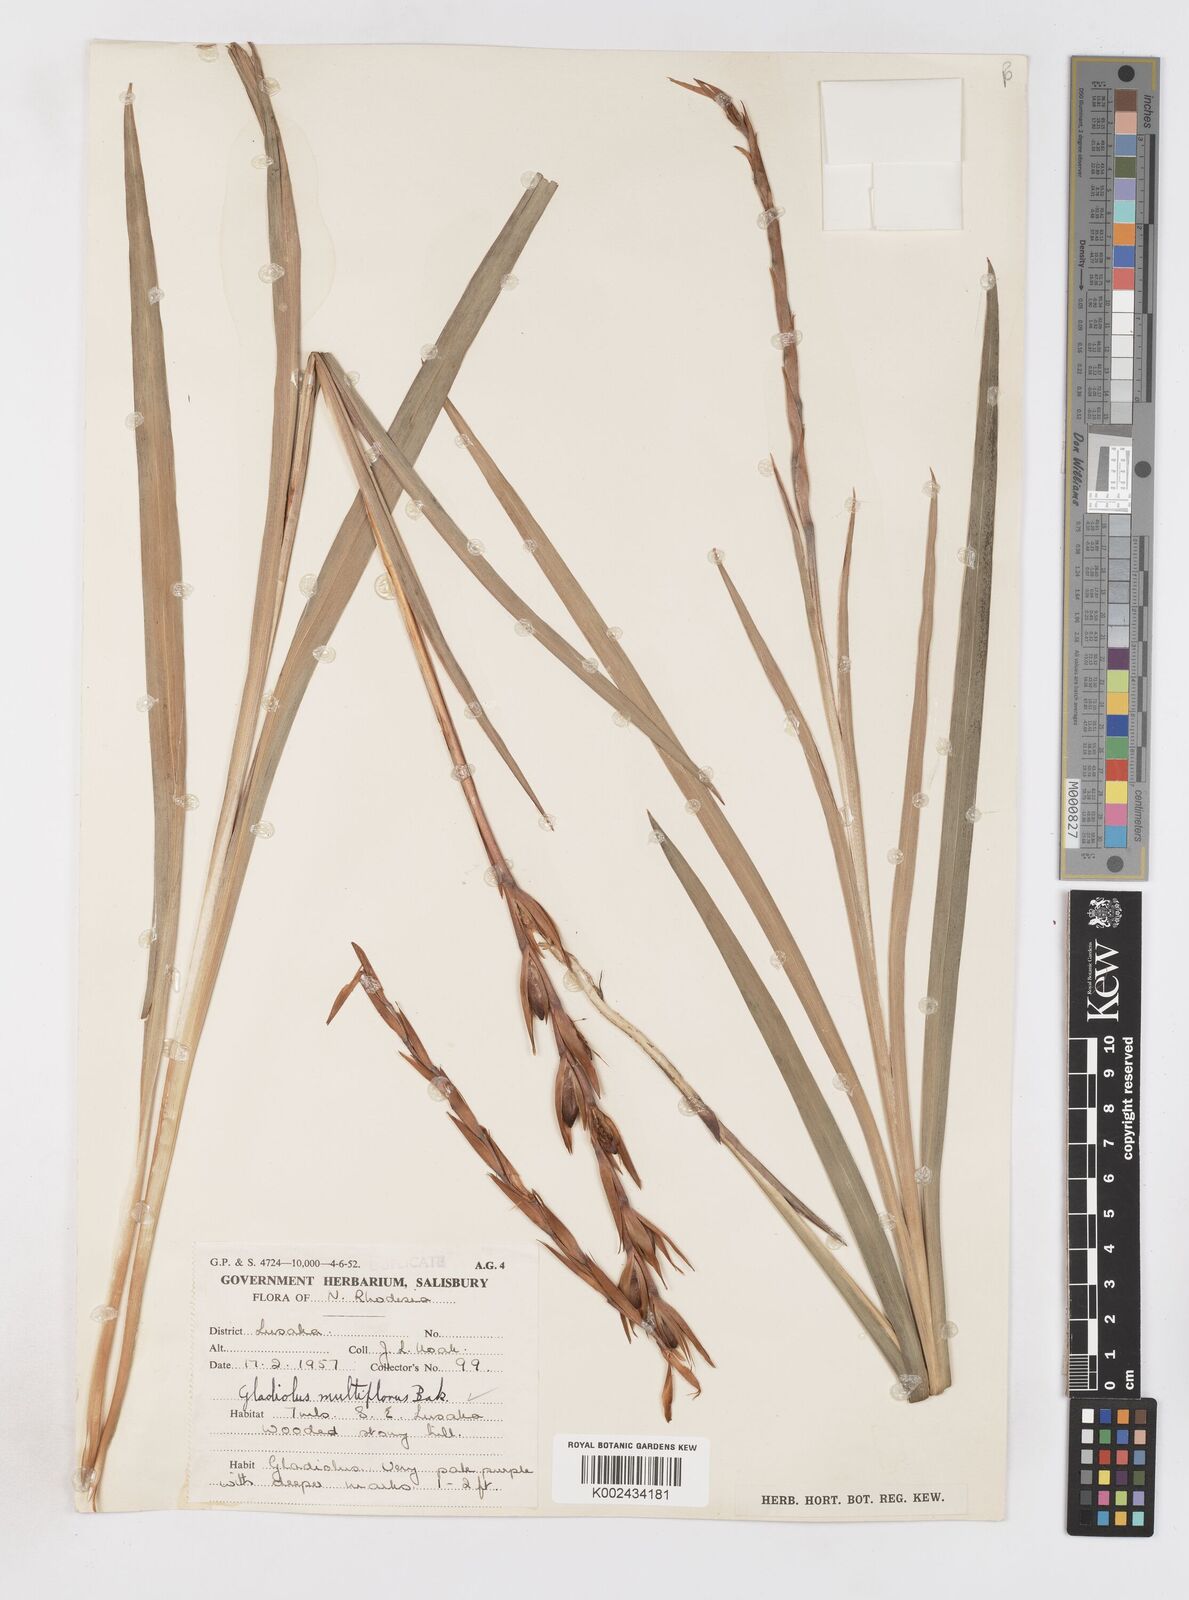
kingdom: Plantae
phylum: Tracheophyta
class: Liliopsida
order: Asparagales
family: Iridaceae
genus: Gladiolus
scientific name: Gladiolus gregarius
